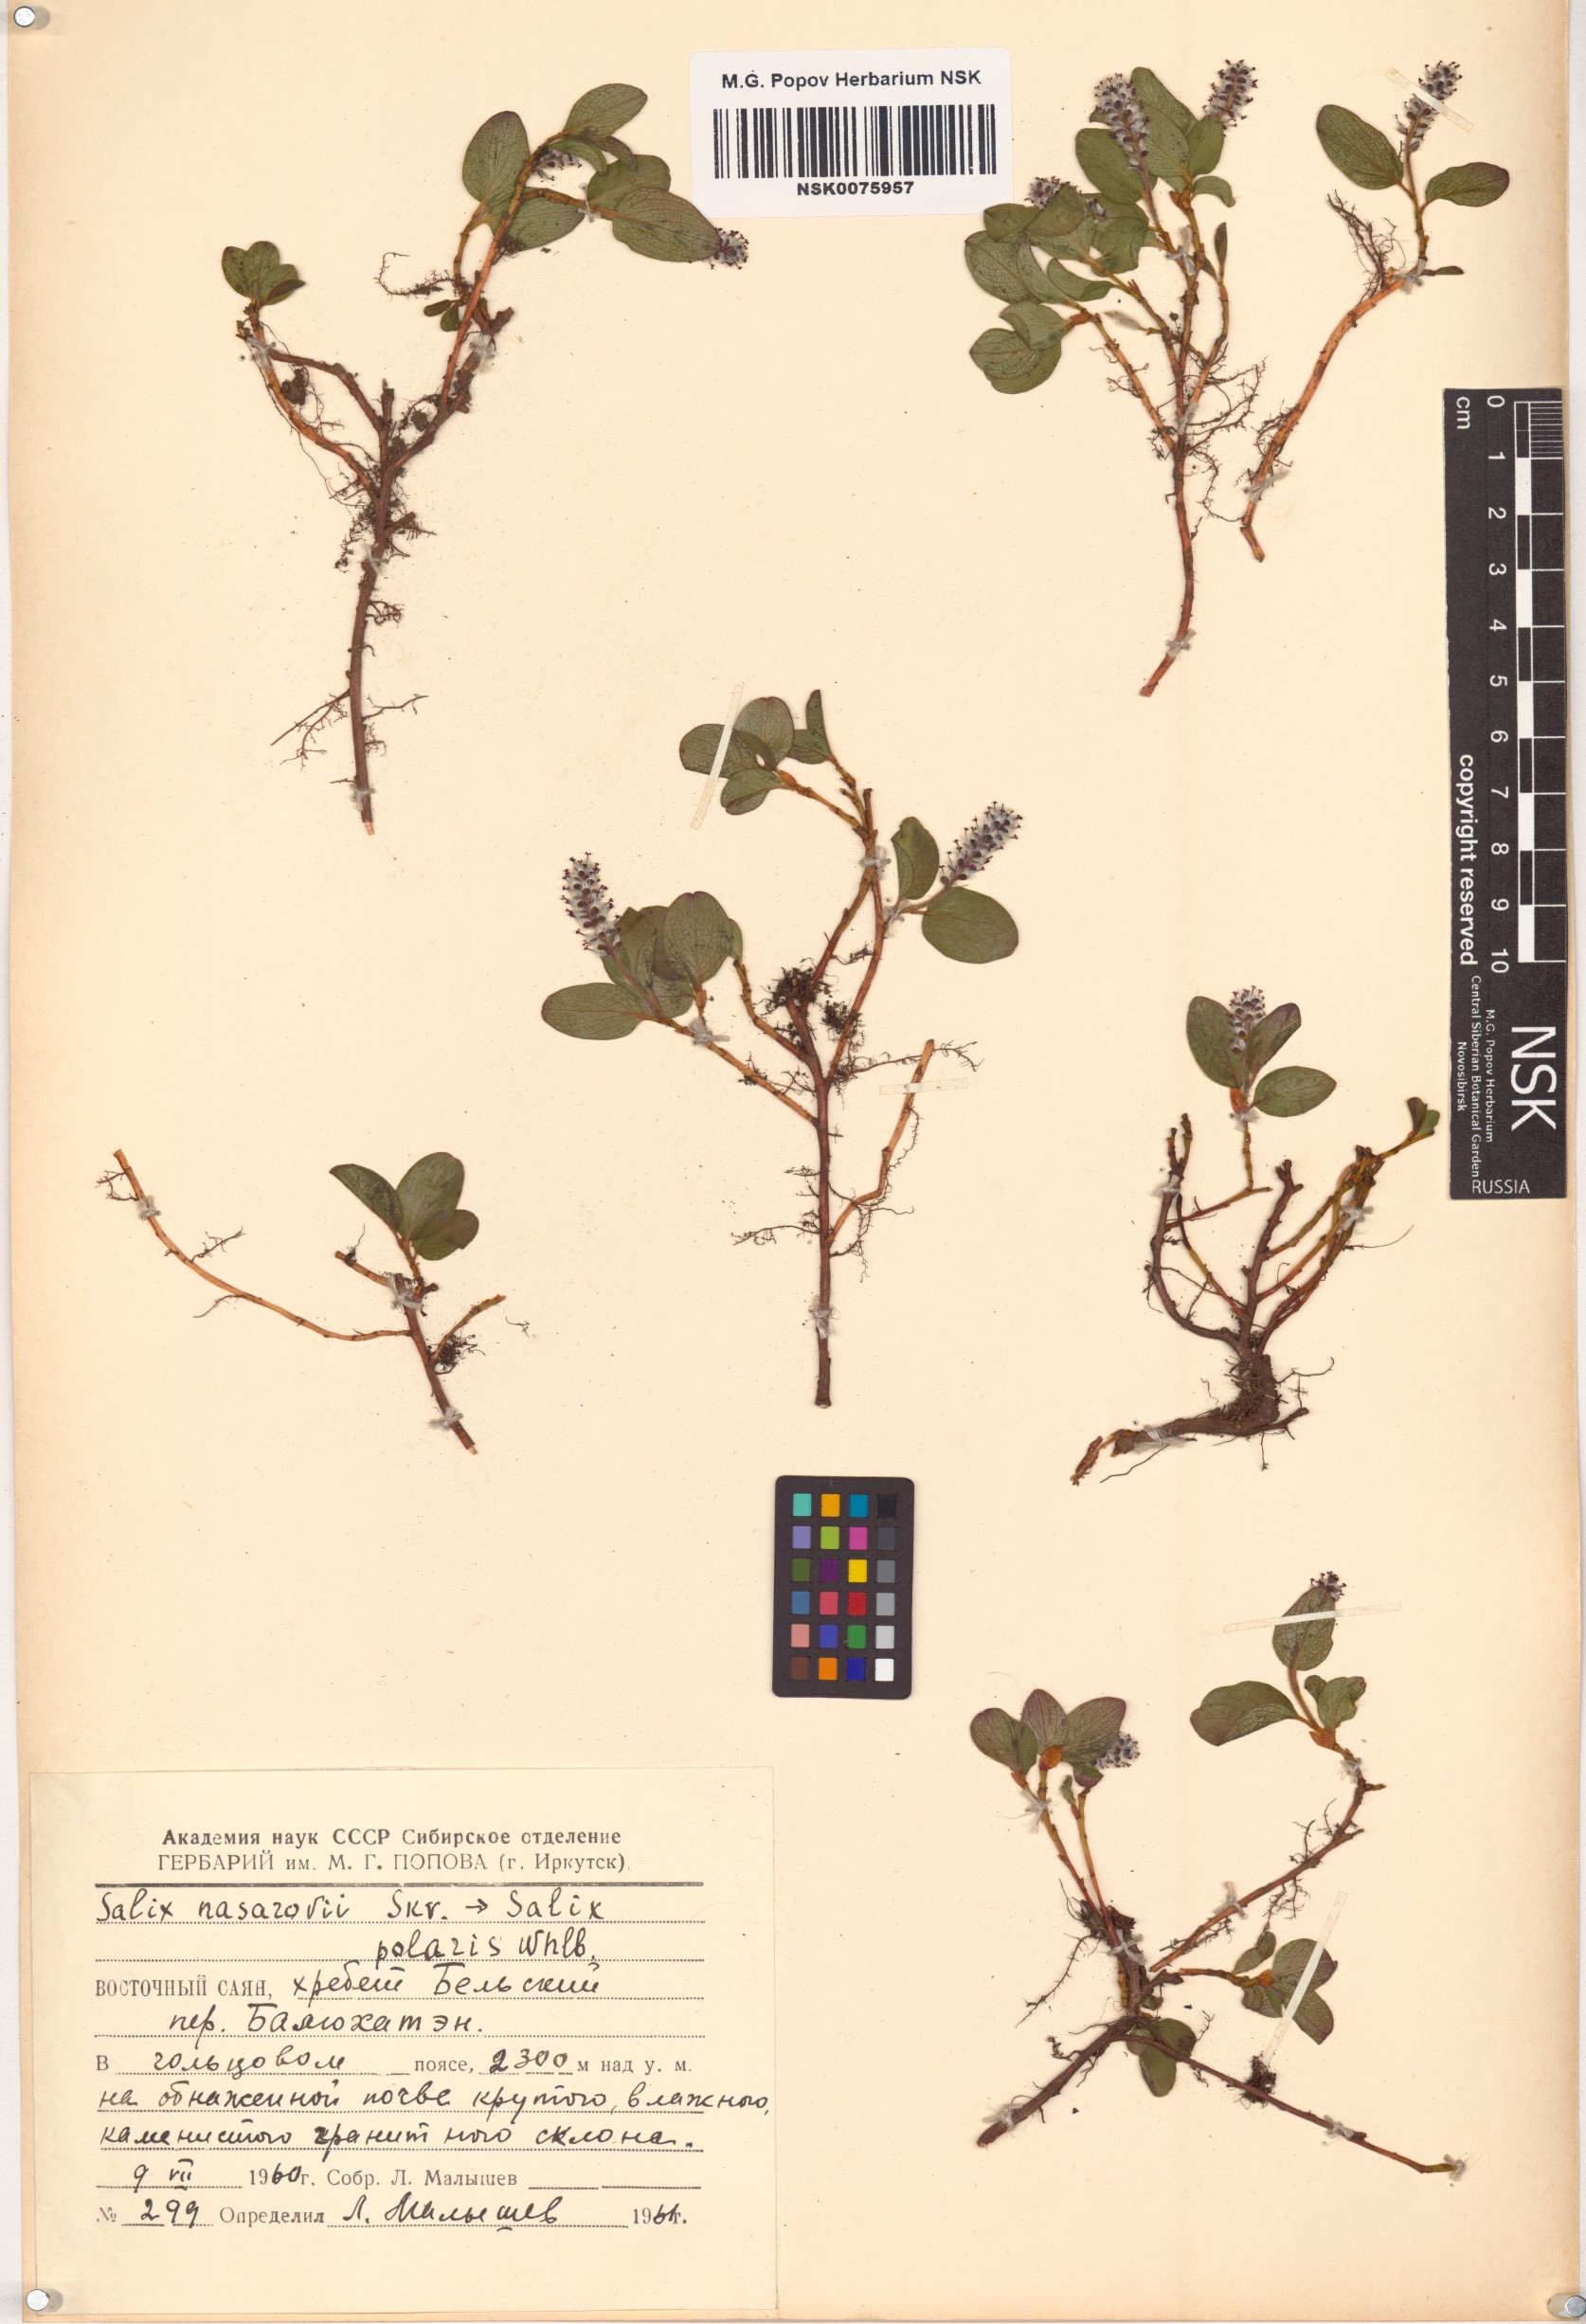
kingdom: Plantae
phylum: Tracheophyta
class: Magnoliopsida
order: Malpighiales
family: Salicaceae
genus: Salix
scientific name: Salix nasarovii
